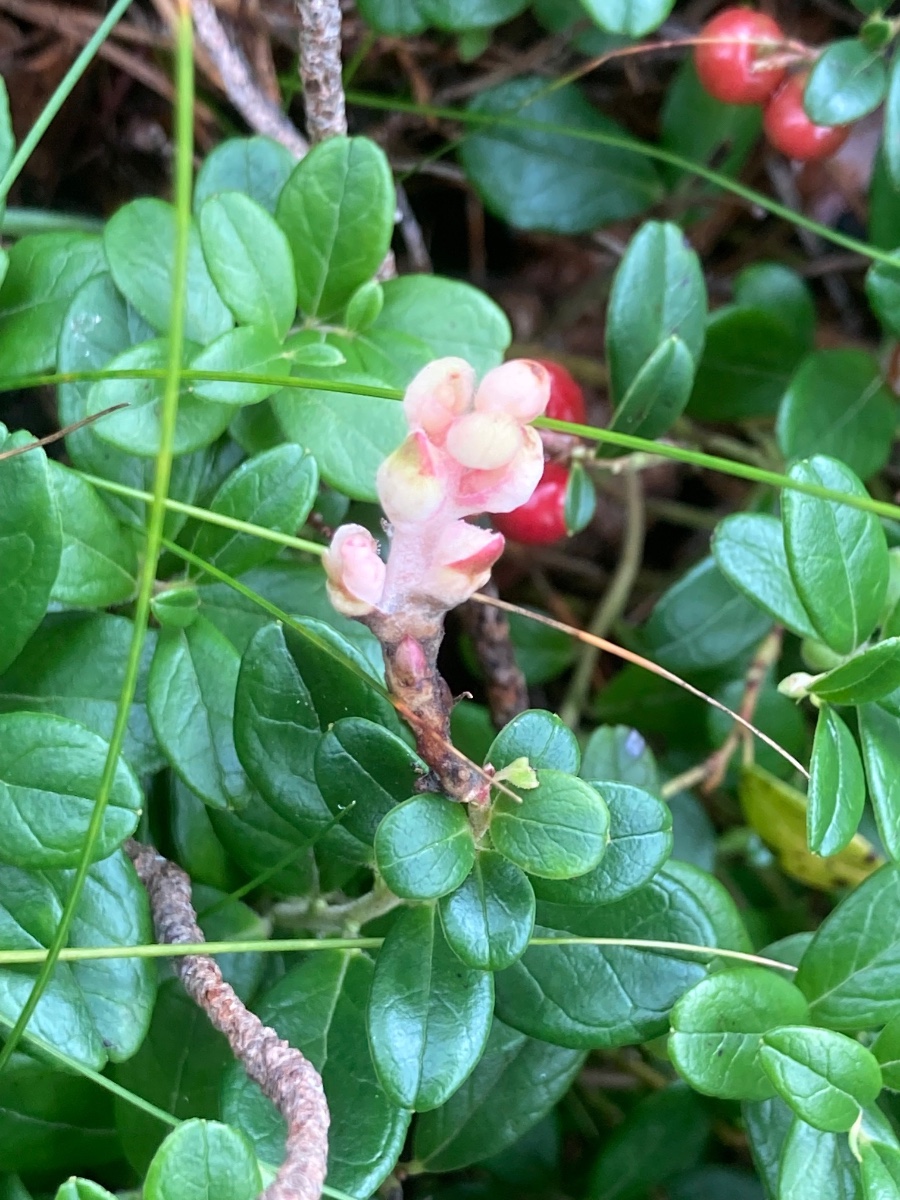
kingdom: Fungi
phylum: Basidiomycota
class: Exobasidiomycetes
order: Exobasidiales
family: Exobasidiaceae
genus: Exobasidium
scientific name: Exobasidium vaccinii
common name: tyttebærblad-bøllesvamp
